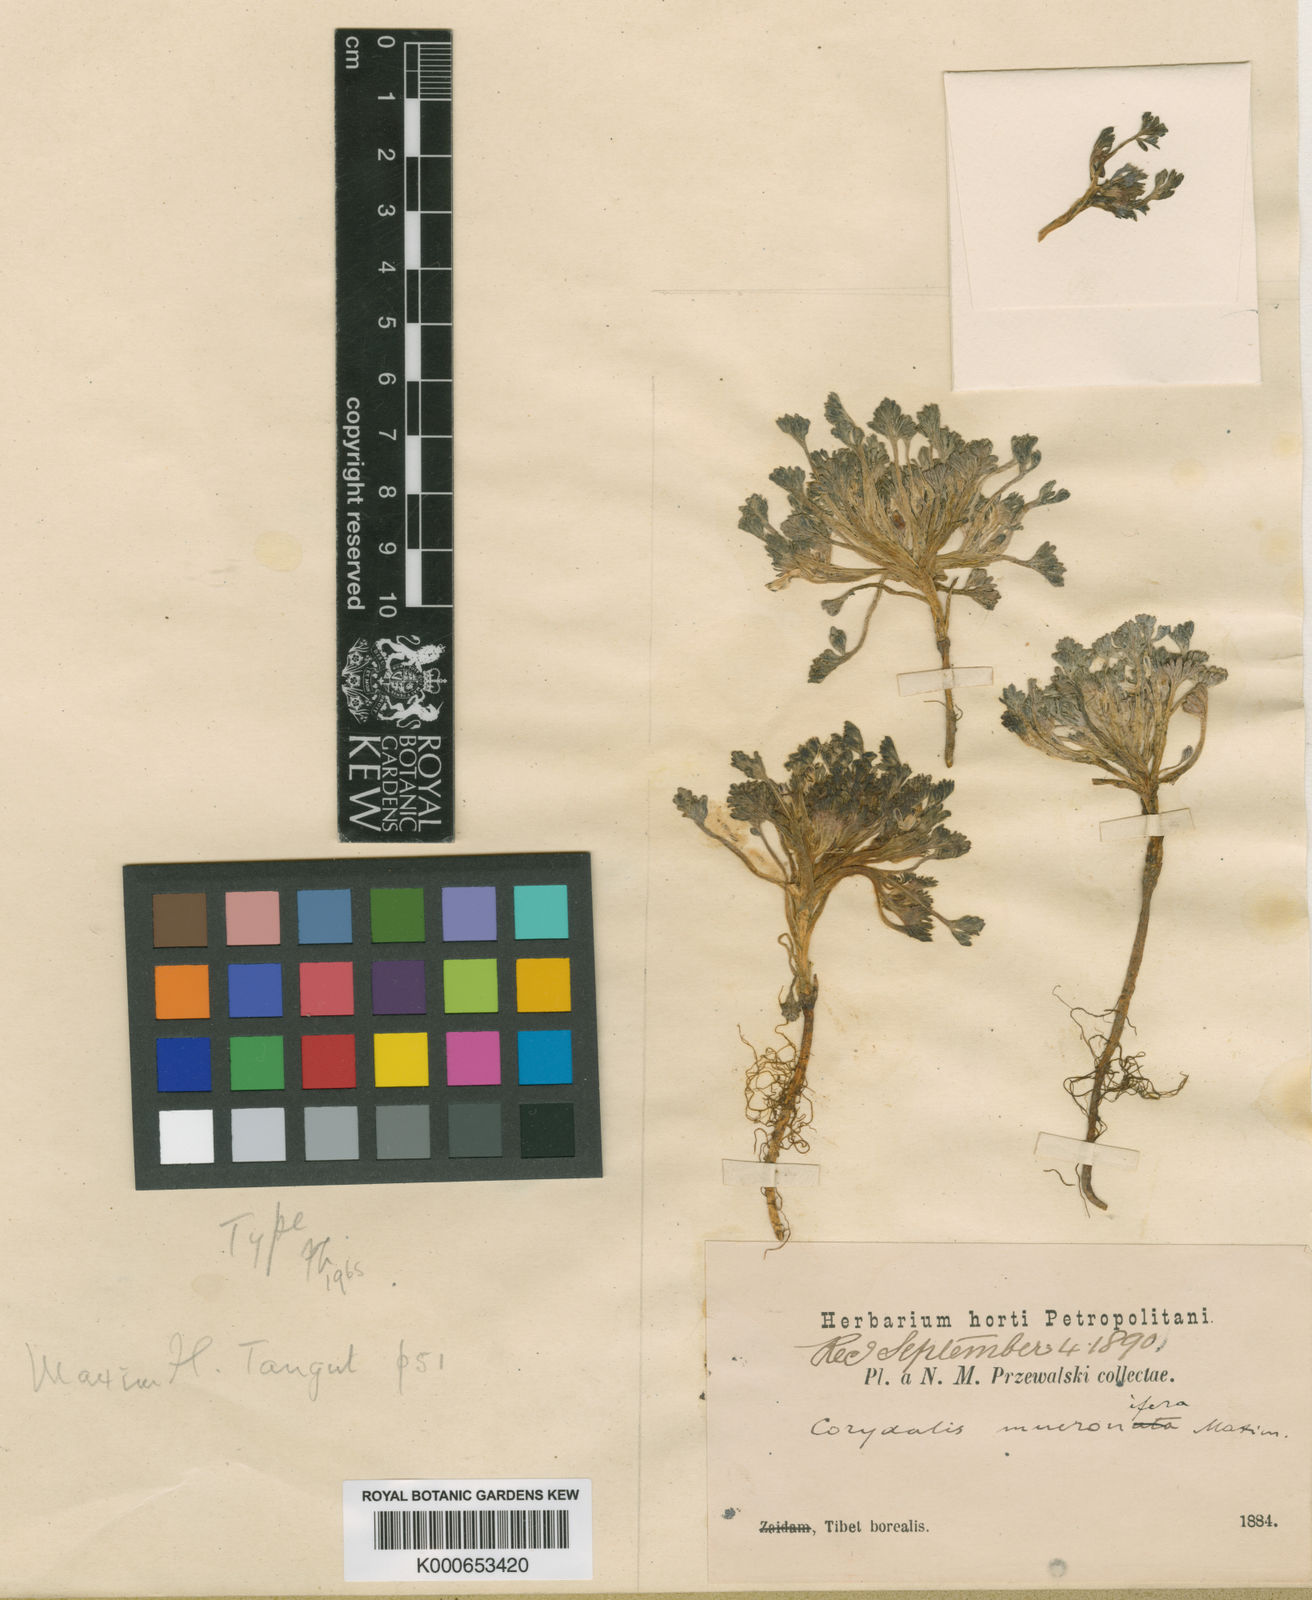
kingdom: Plantae
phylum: Tracheophyta
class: Magnoliopsida
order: Ranunculales
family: Papaveraceae
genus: Corydalis
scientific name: Corydalis mucronifera
